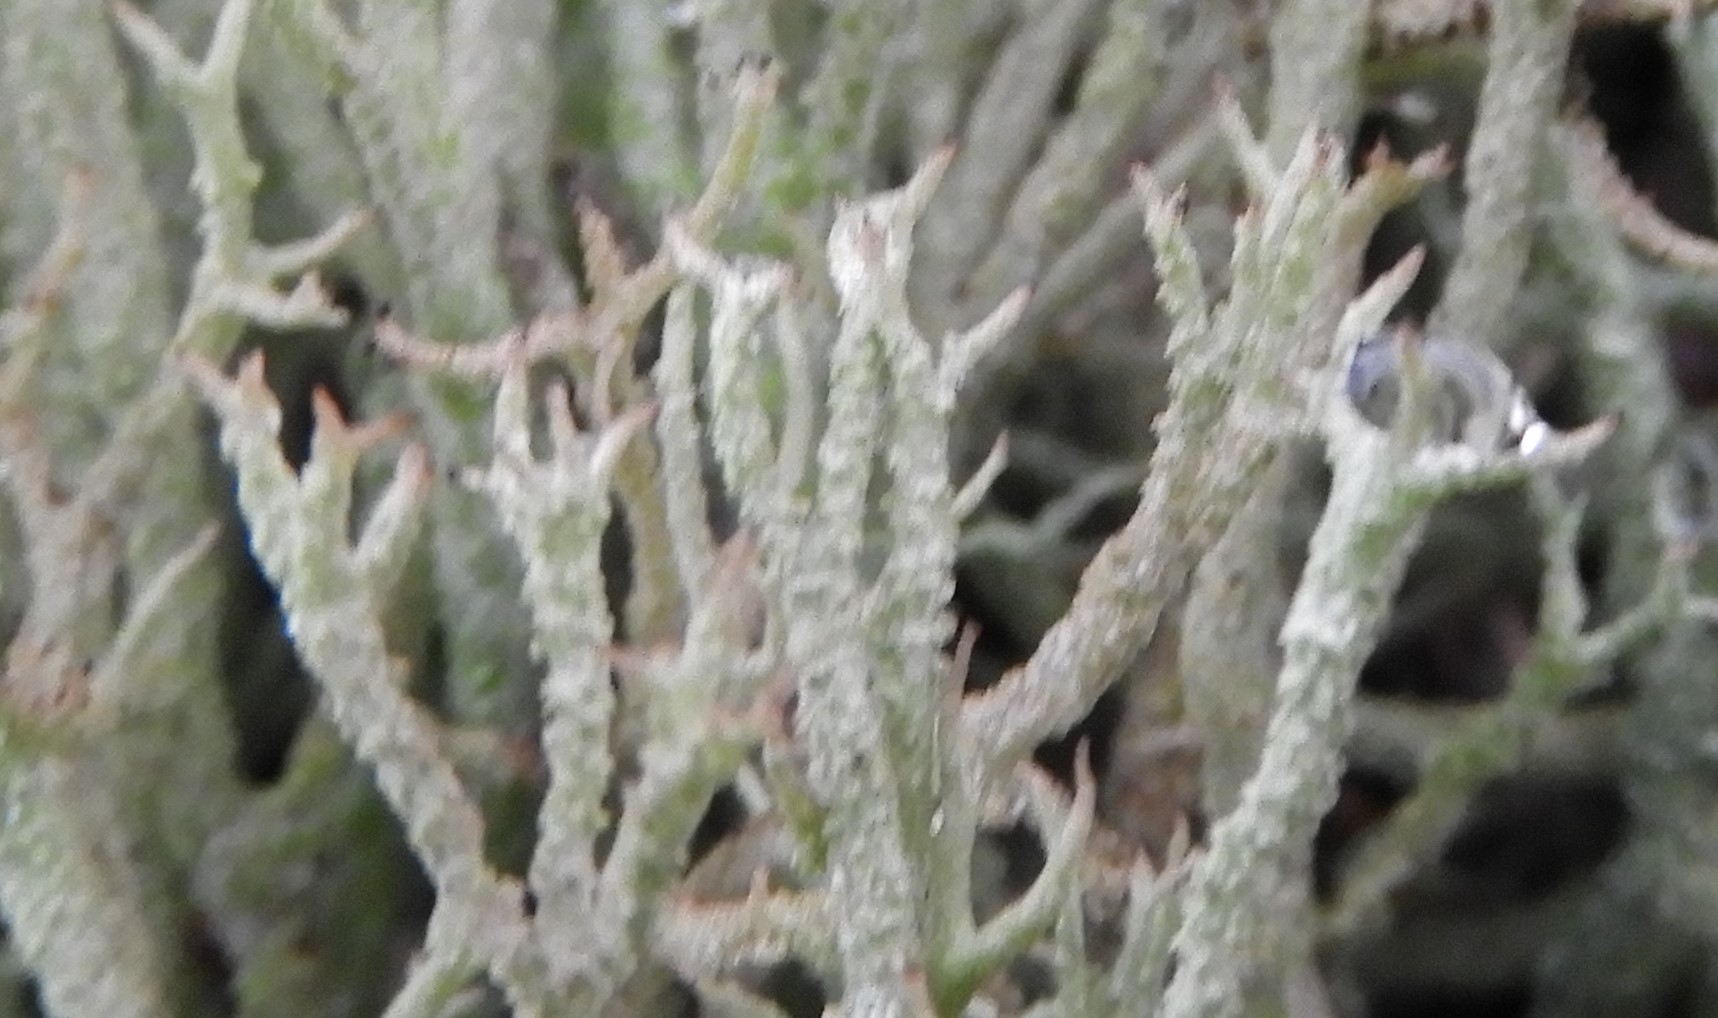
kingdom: Fungi
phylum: Ascomycota
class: Lecanoromycetes
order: Lecanorales
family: Cladoniaceae
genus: Cladonia
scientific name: Cladonia scabriuscula
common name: ru bægerlav
